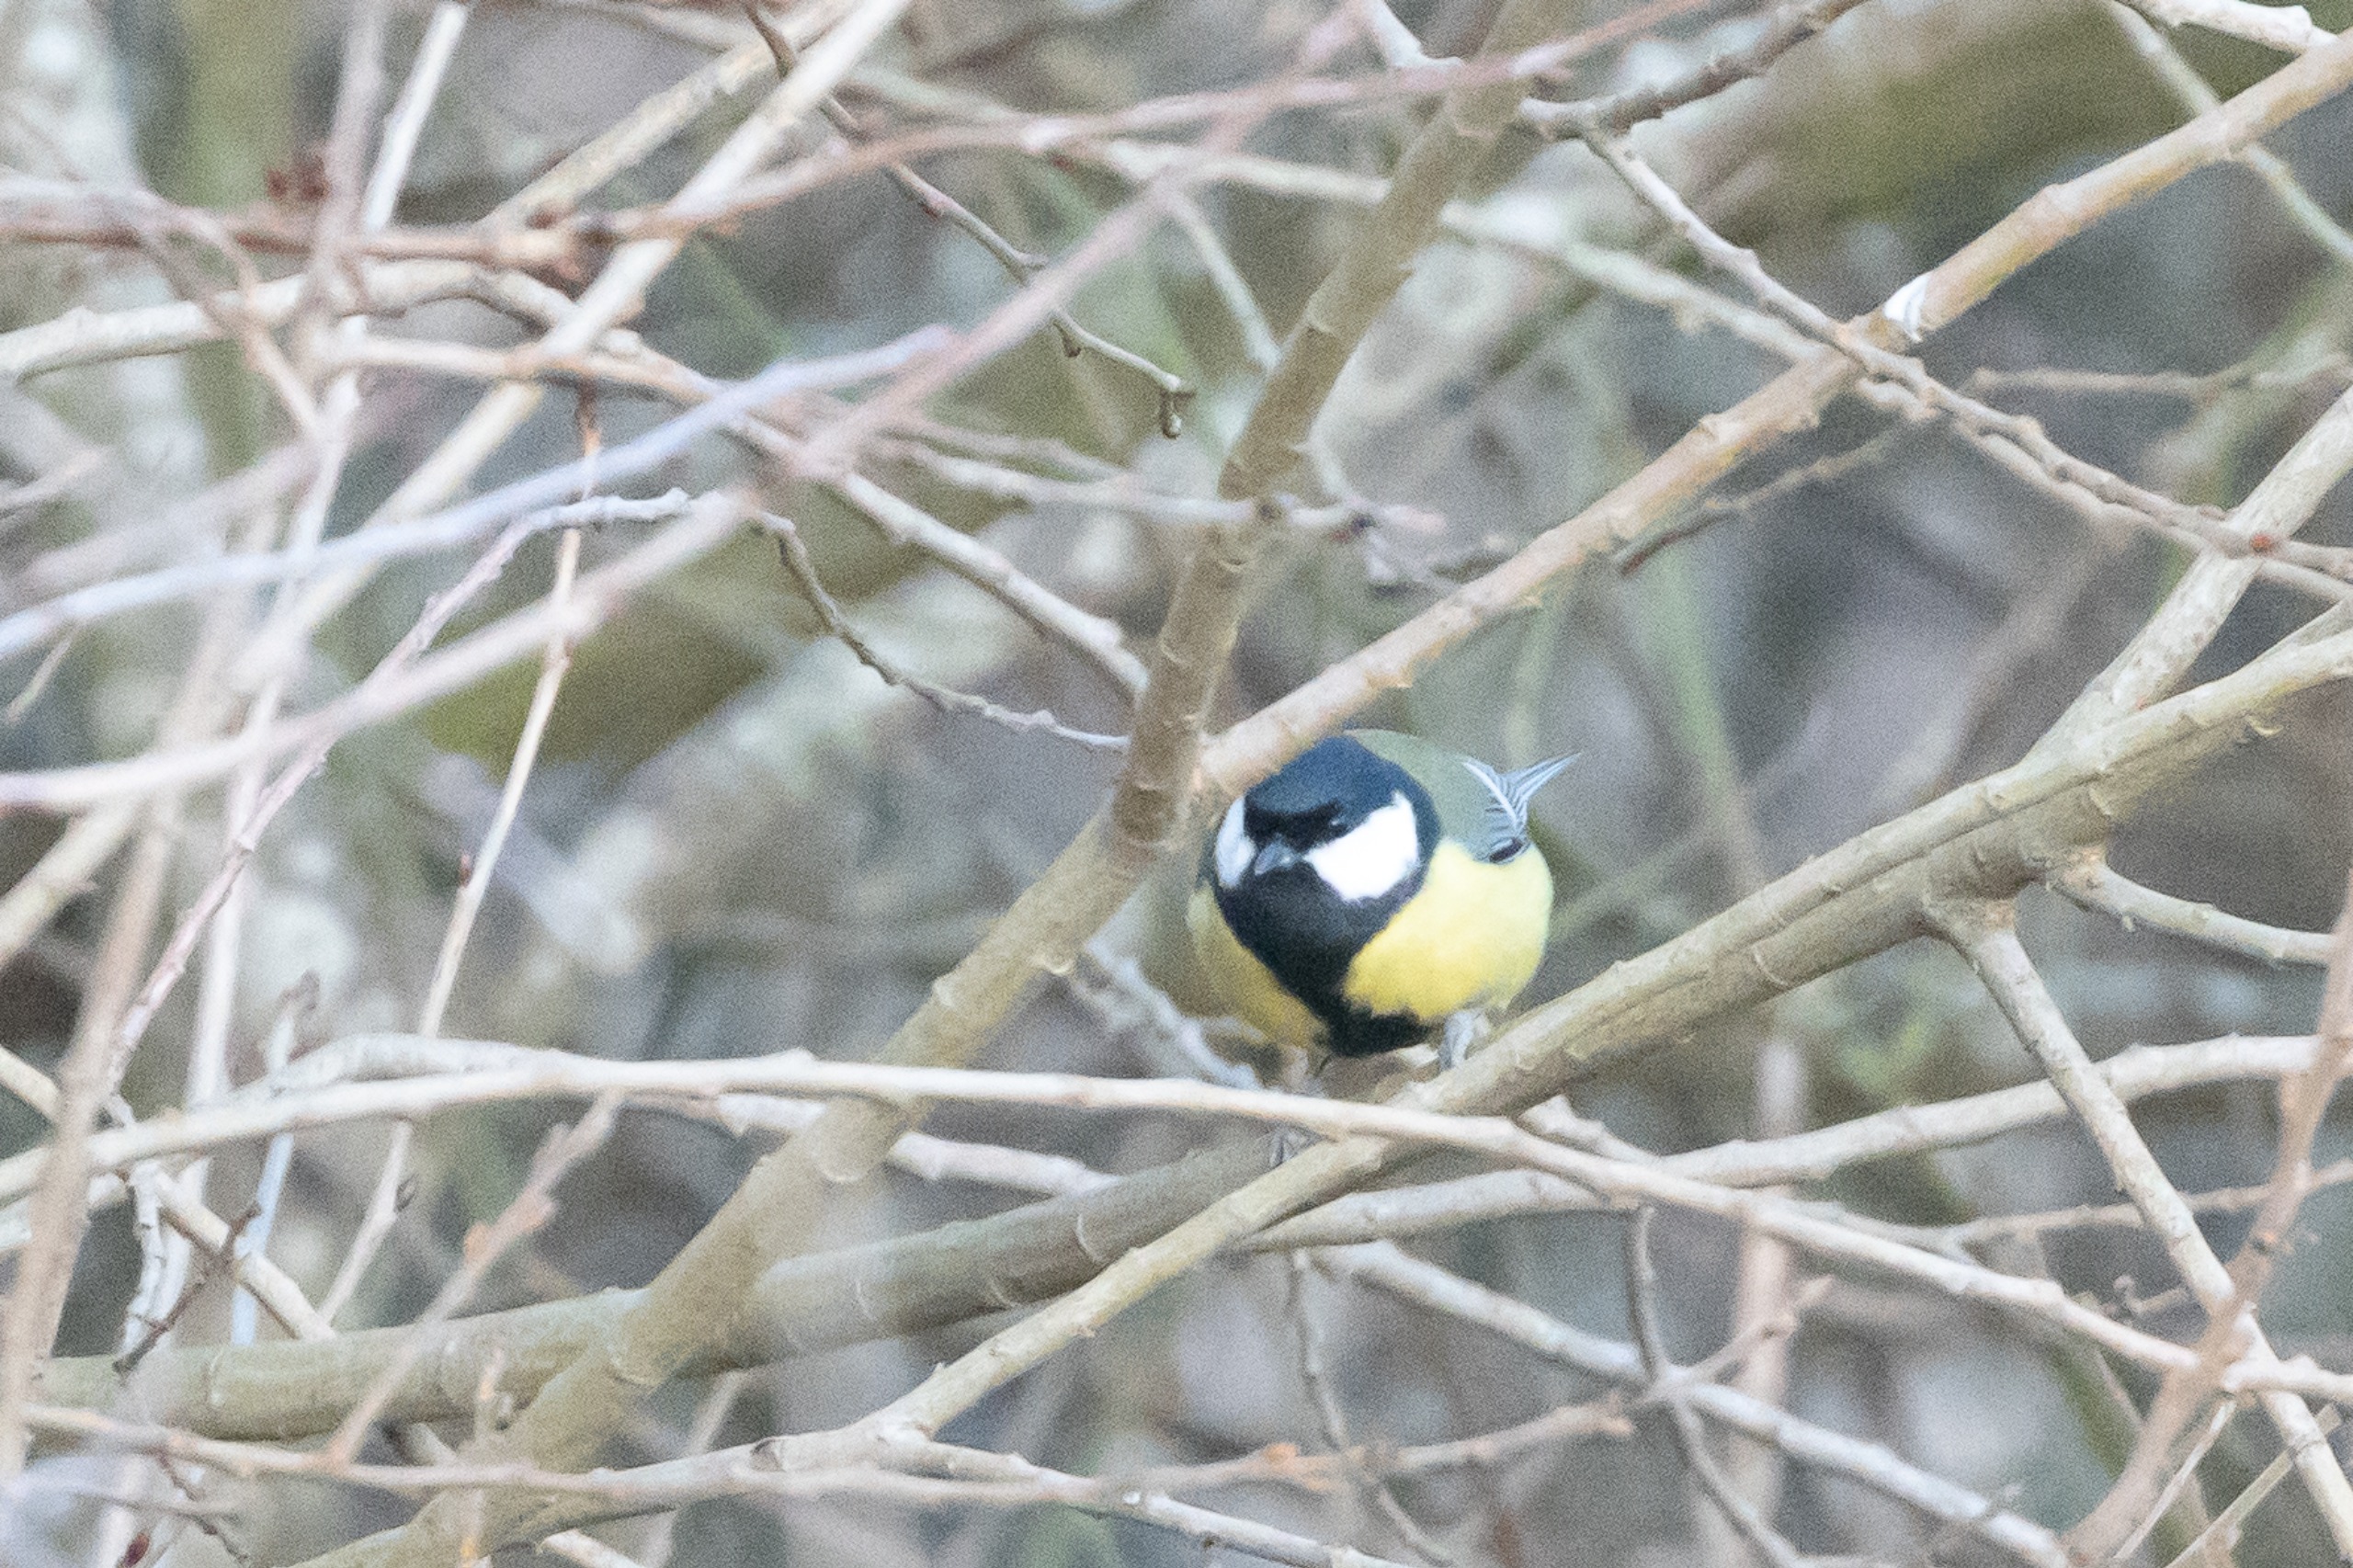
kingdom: Animalia
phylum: Chordata
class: Aves
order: Passeriformes
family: Paridae
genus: Parus
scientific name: Parus major
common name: Musvit
